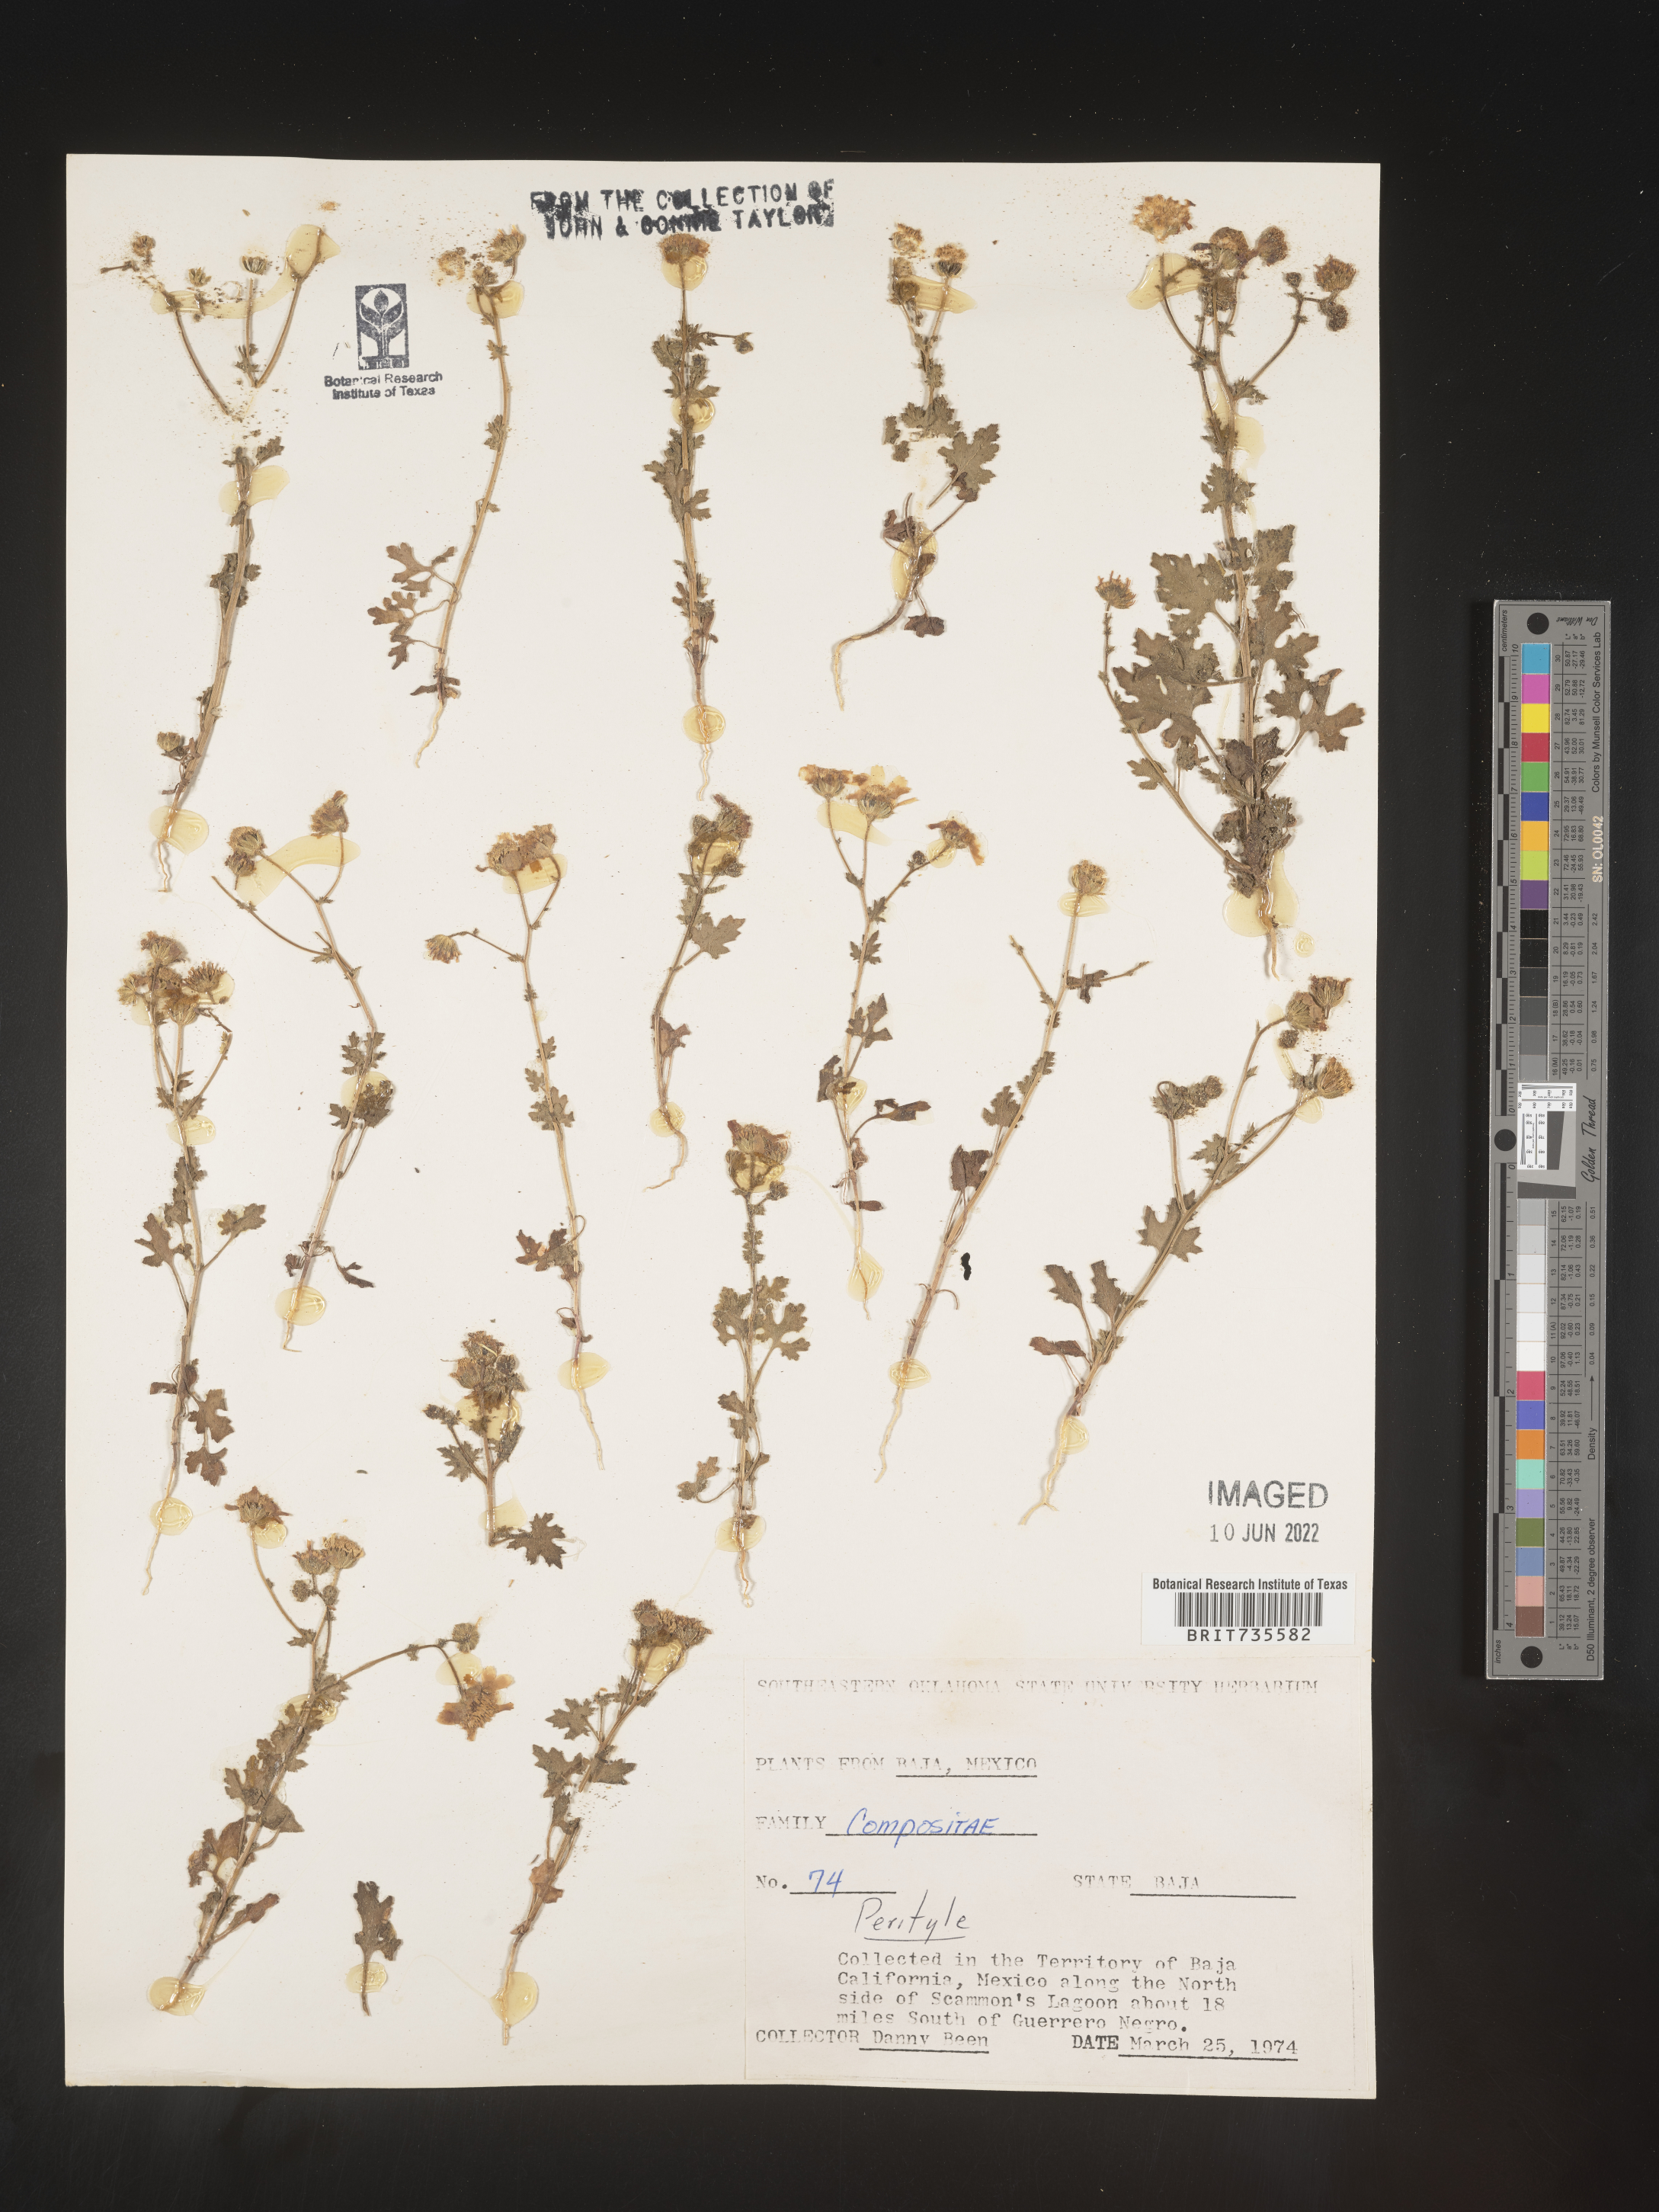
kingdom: Plantae
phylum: Tracheophyta
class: Magnoliopsida
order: Asterales
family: Asteraceae
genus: Perityle
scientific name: Perityle
